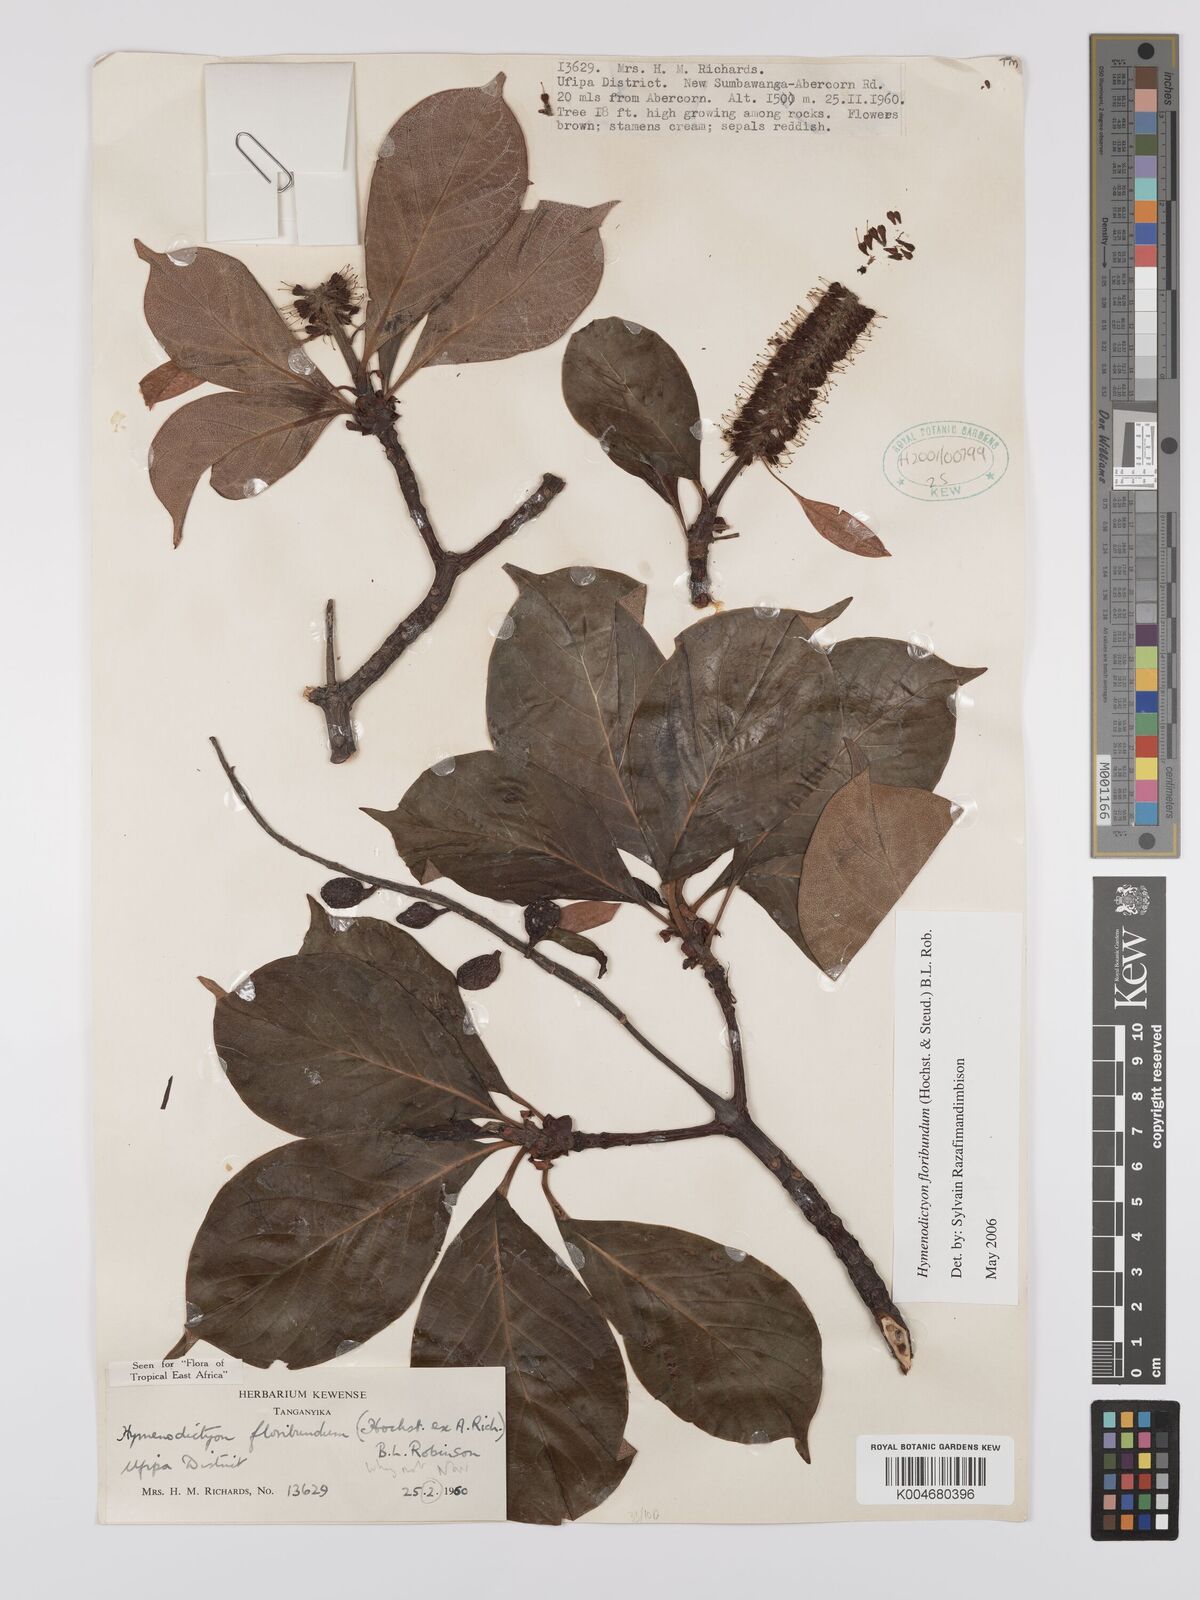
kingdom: Plantae
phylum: Tracheophyta
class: Magnoliopsida
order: Gentianales
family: Rubiaceae
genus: Hymenodictyon
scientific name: Hymenodictyon floribundum
